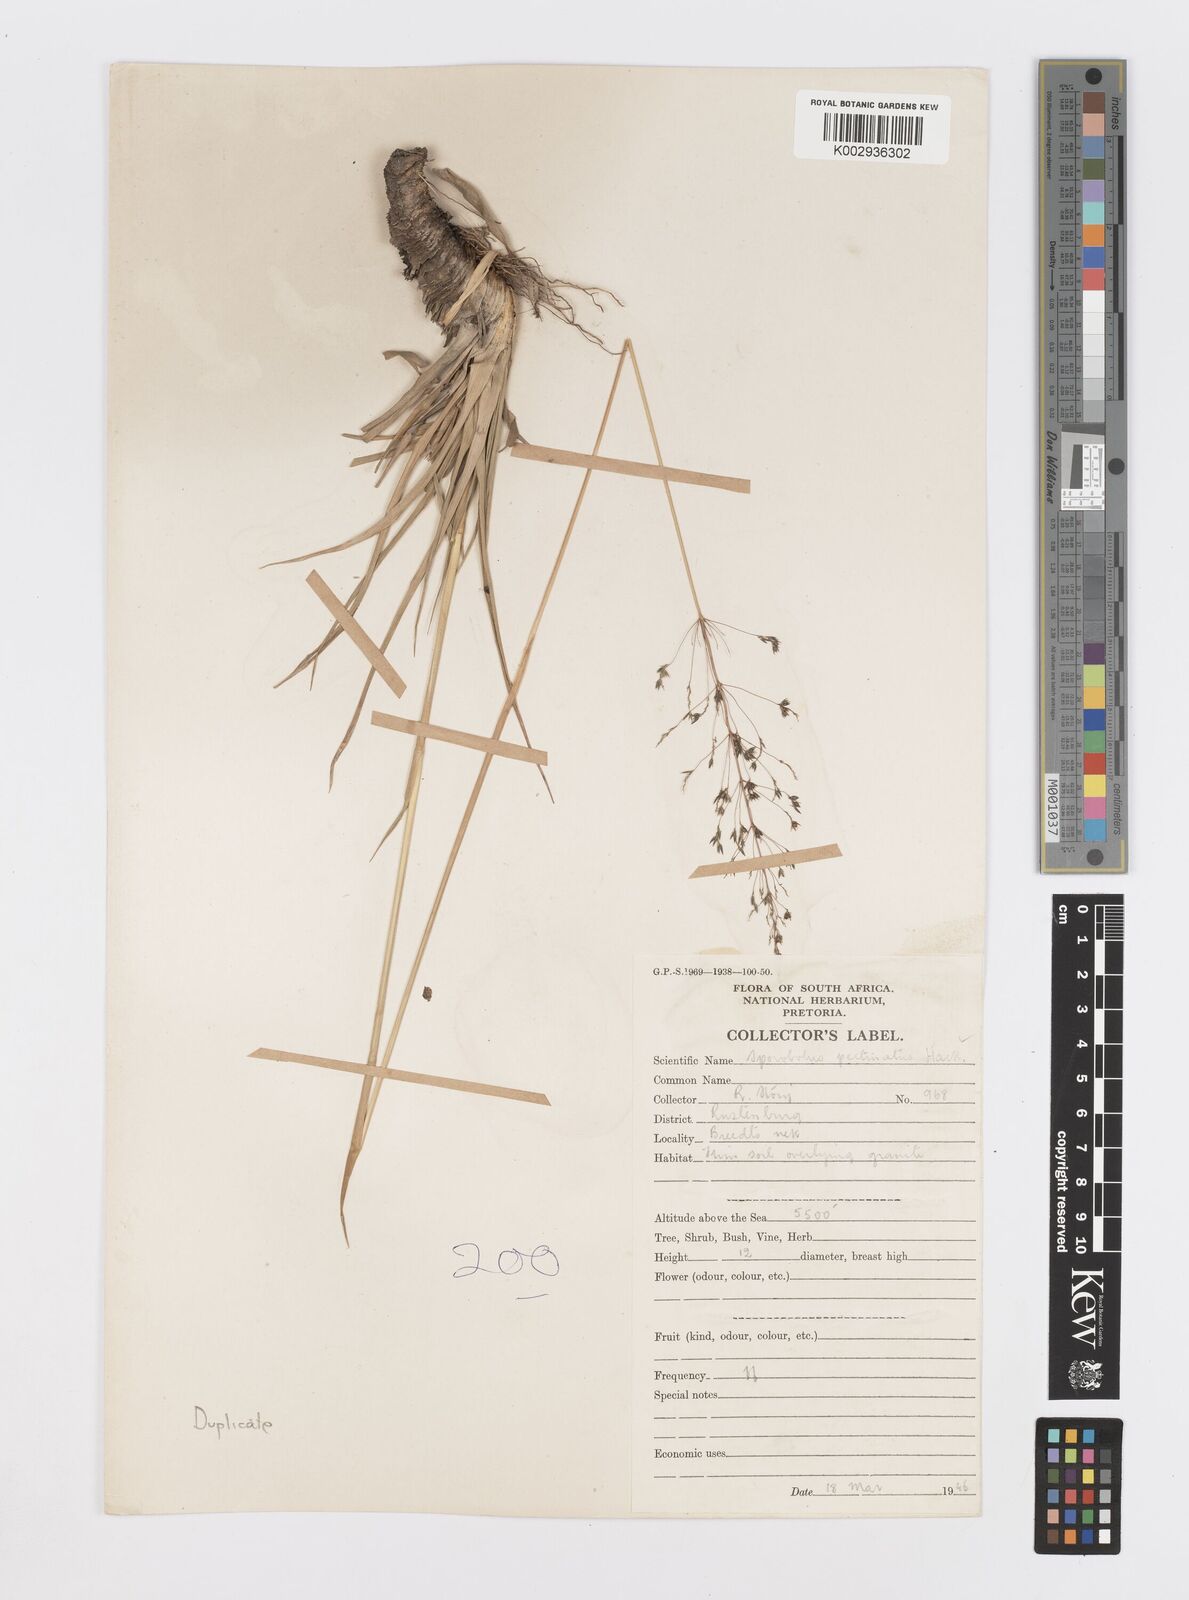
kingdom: Plantae
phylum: Tracheophyta
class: Liliopsida
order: Poales
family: Poaceae
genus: Sporobolus
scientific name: Sporobolus pectinatus
